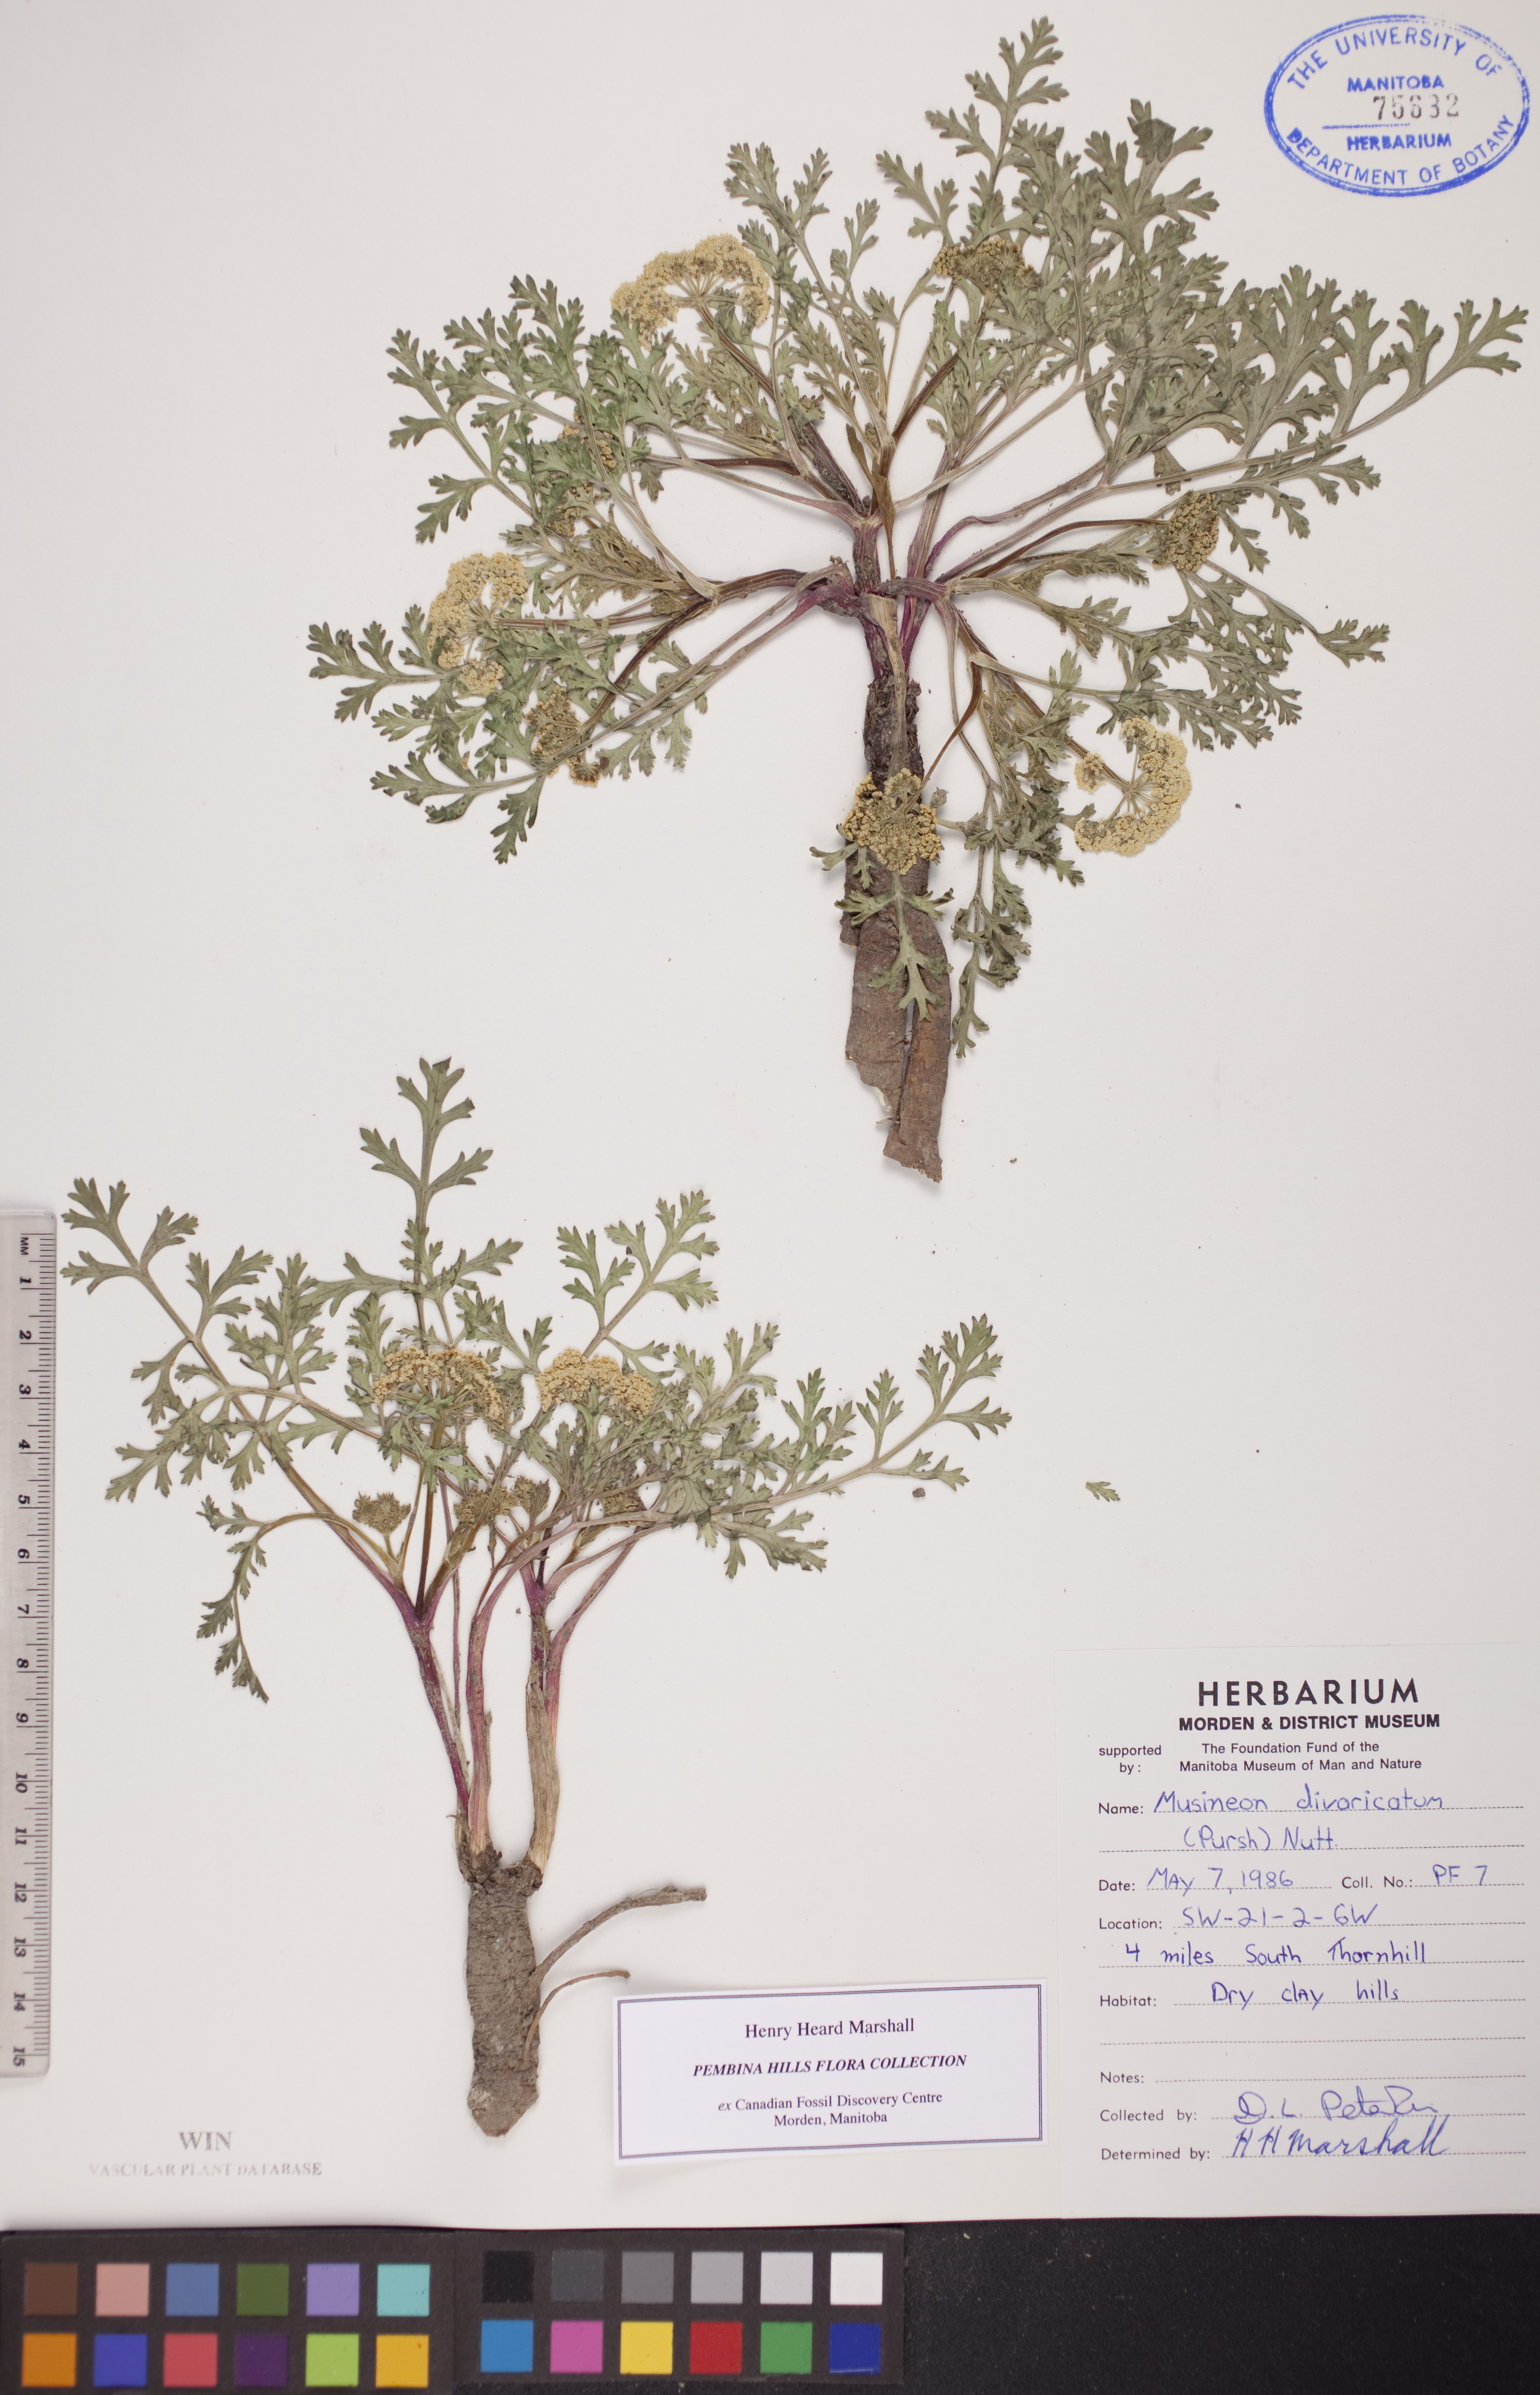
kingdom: Plantae
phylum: Tracheophyta
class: Magnoliopsida
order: Apiales
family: Apiaceae
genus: Musineon
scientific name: Musineon divaricatum
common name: Plains musineon
